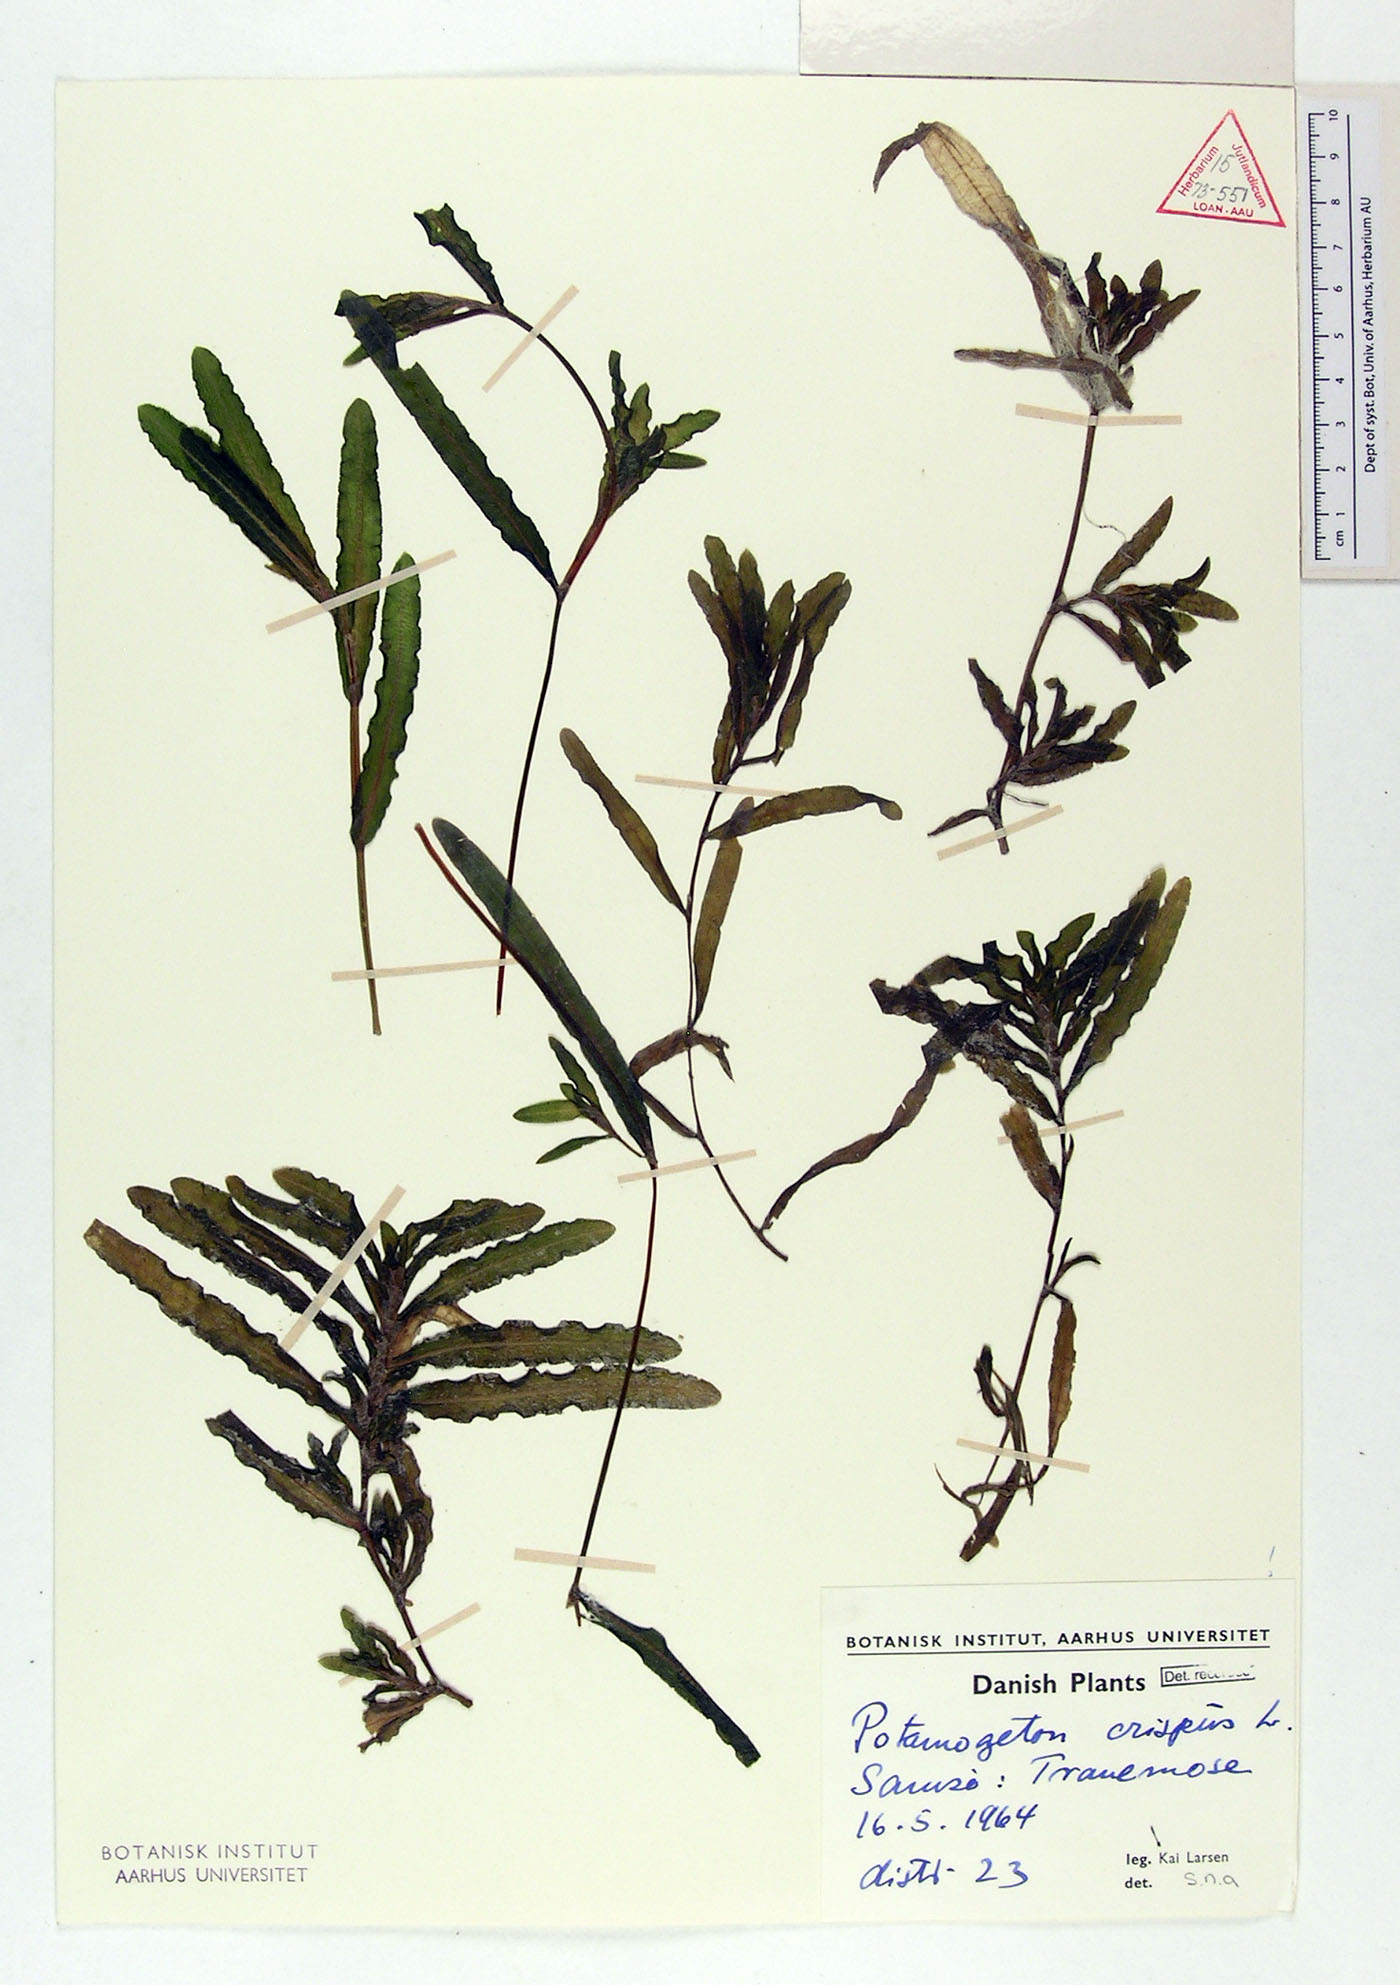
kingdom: Plantae
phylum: Tracheophyta
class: Liliopsida
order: Alismatales
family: Potamogetonaceae
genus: Potamogeton
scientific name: Potamogeton crispus
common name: Curled pondweed
